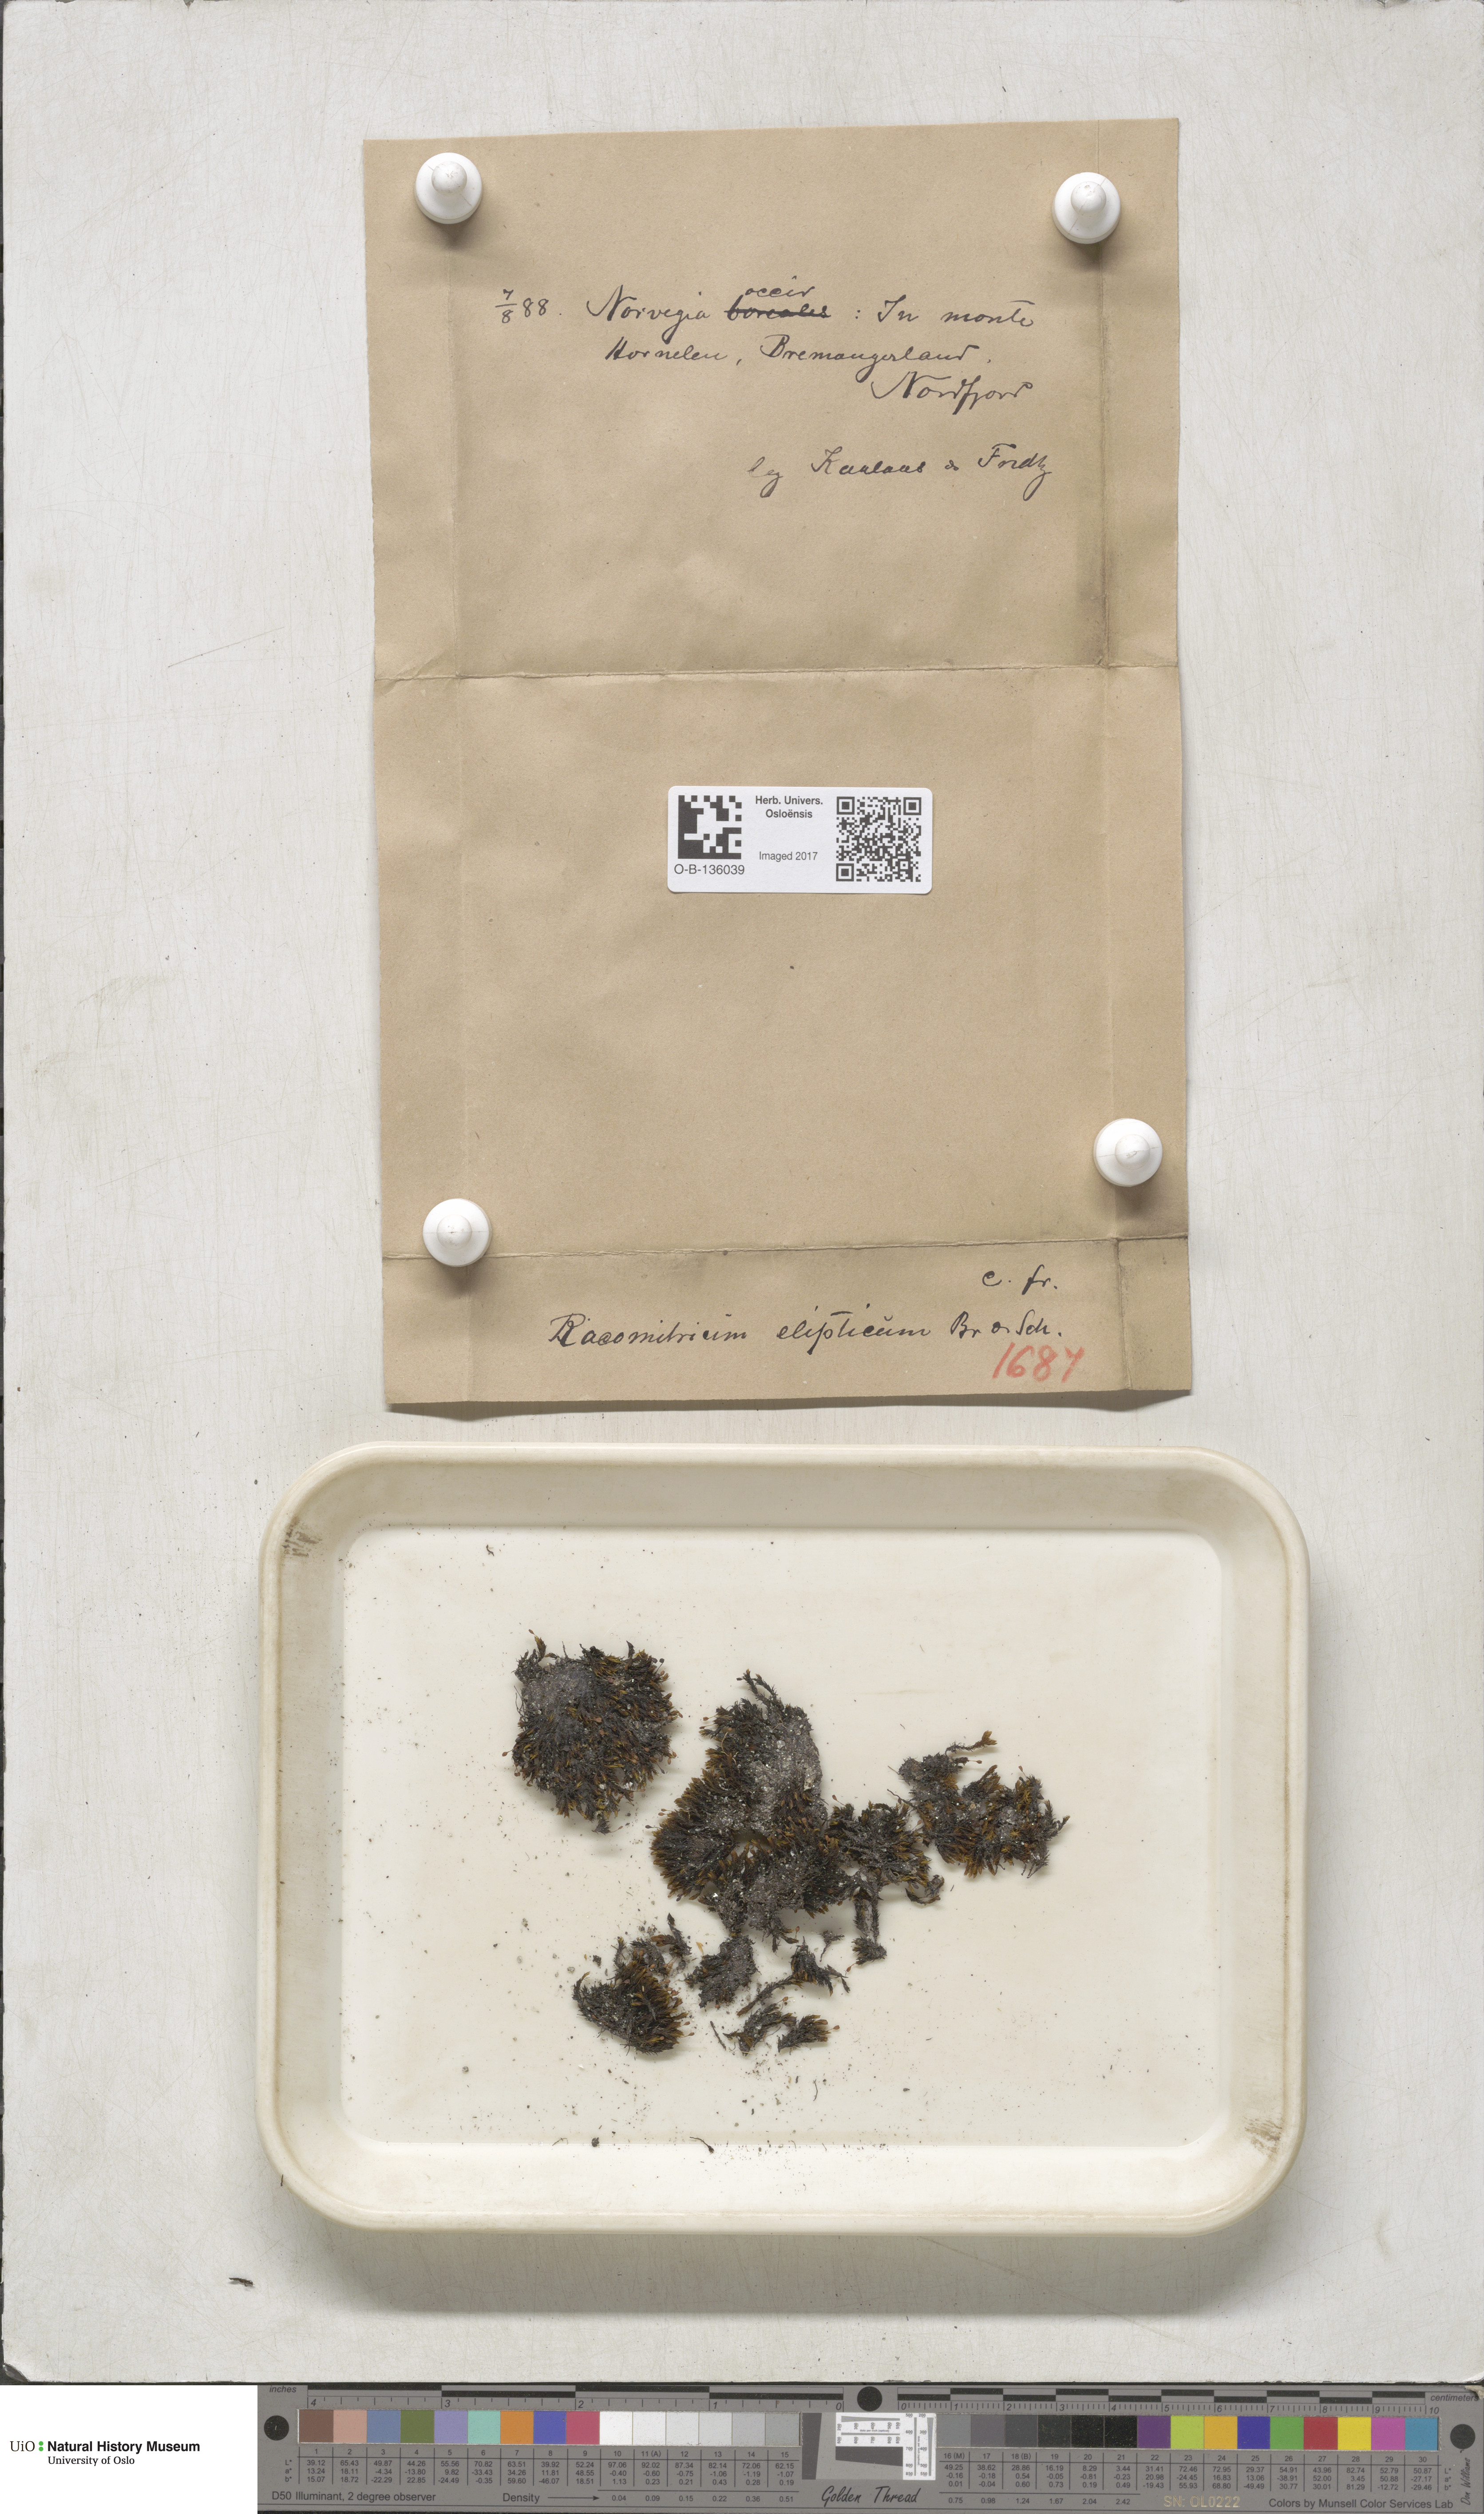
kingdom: Plantae
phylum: Bryophyta
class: Bryopsida
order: Grimmiales
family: Grimmiaceae
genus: Bucklandiella
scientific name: Bucklandiella elliptica
